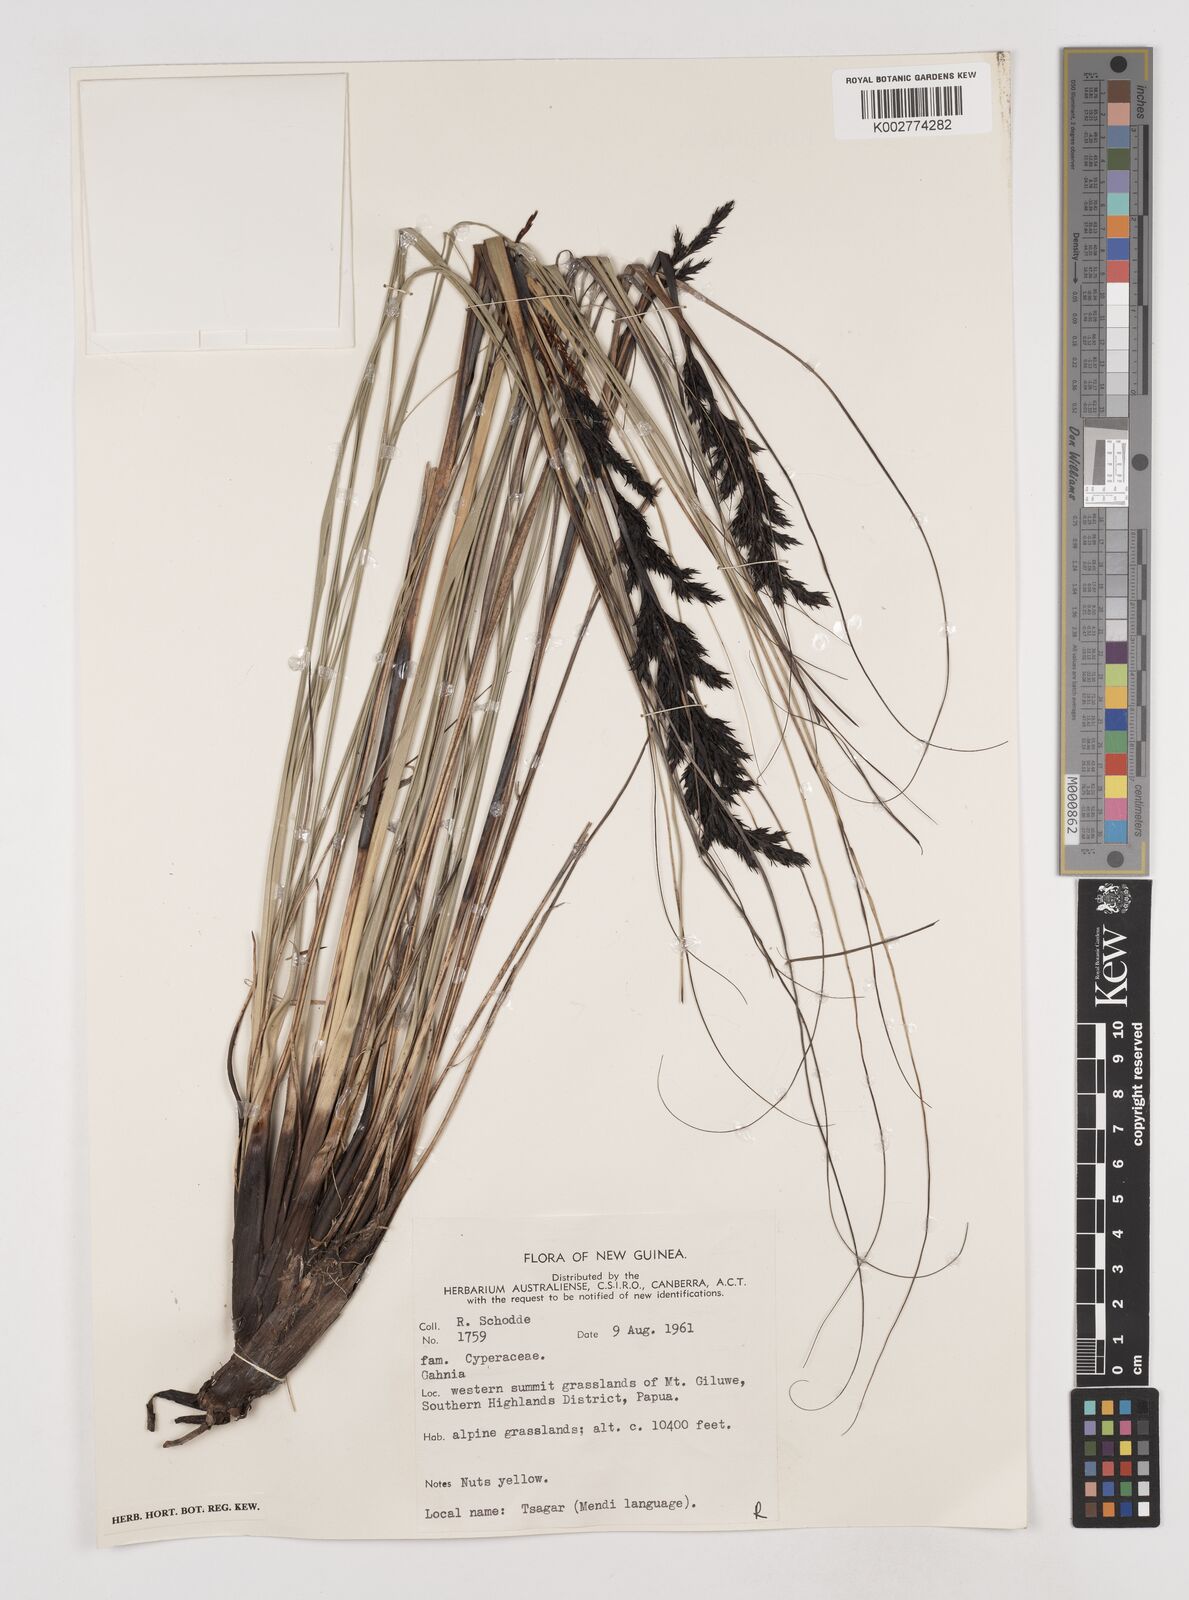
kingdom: Plantae
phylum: Tracheophyta
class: Liliopsida
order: Poales
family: Cyperaceae
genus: Gahnia
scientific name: Gahnia
